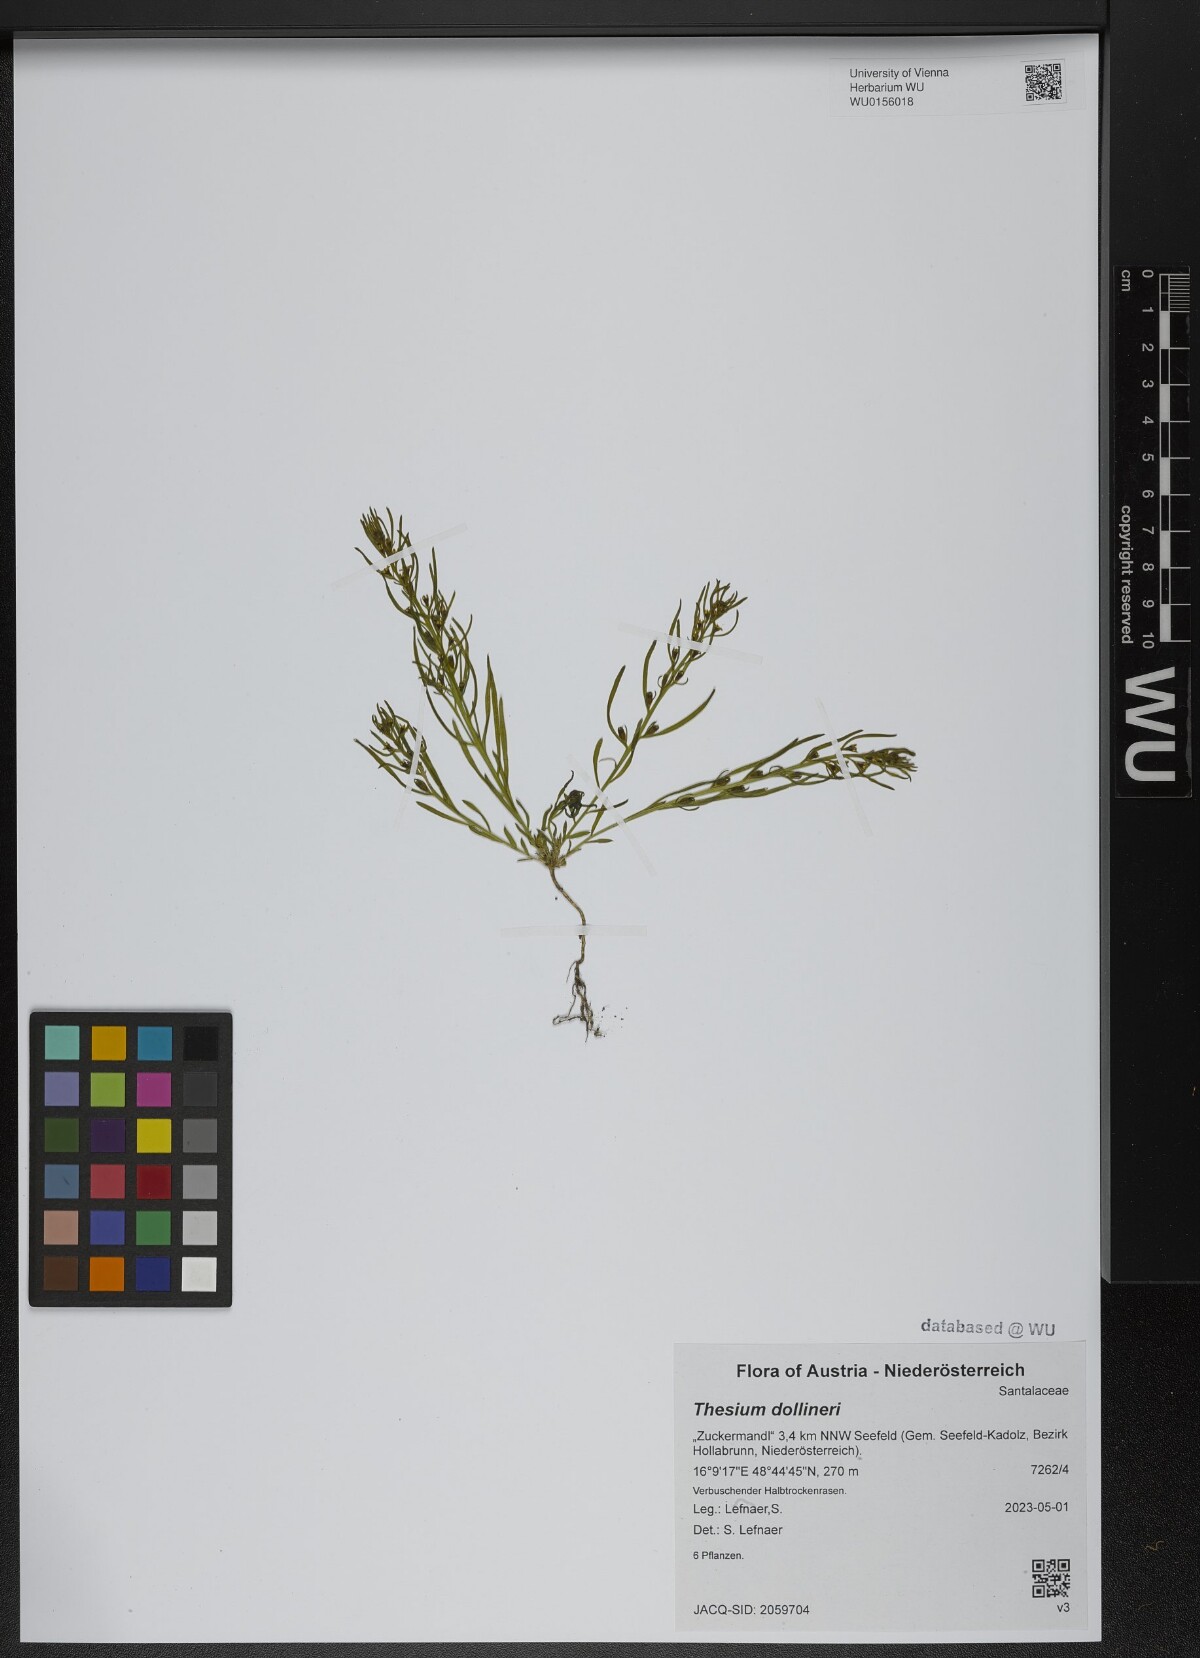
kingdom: Plantae
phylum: Tracheophyta
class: Magnoliopsida
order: Santalales
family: Thesiaceae
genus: Thesium
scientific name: Thesium dollineri
